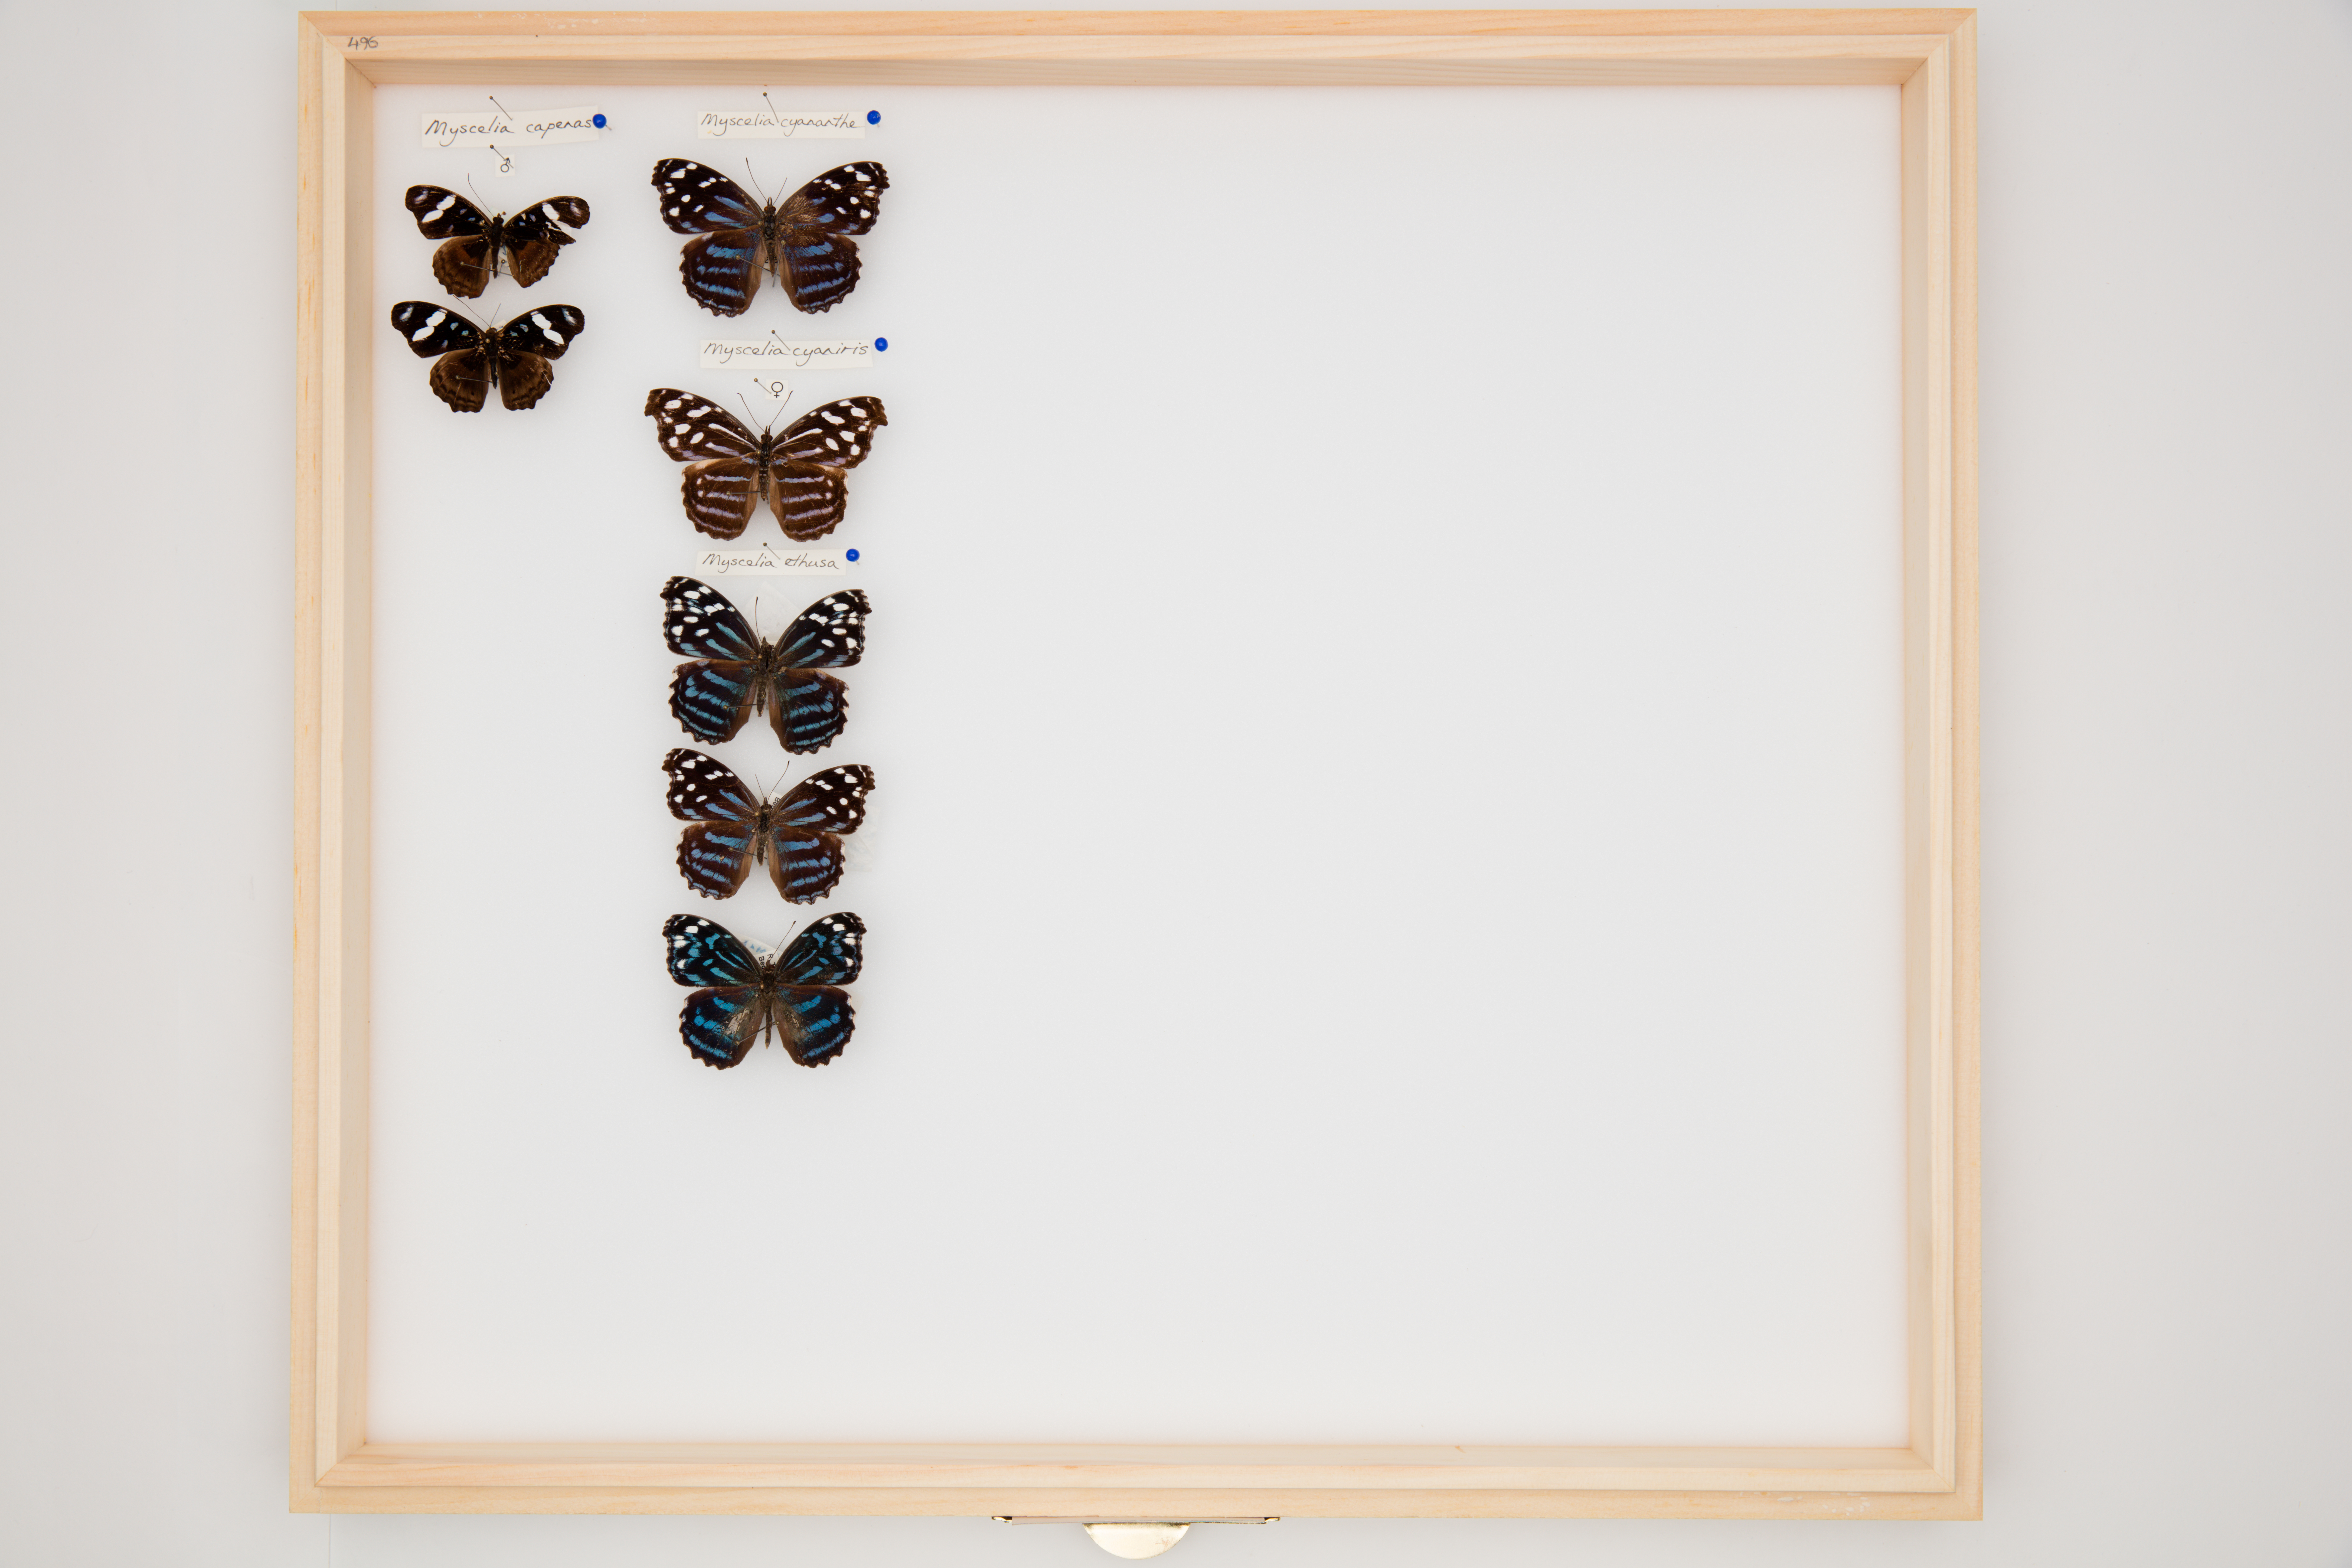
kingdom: Animalia
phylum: Arthropoda
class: Insecta
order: Lepidoptera
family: Nymphalidae
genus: Myscelia
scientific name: Myscelia ethusa
